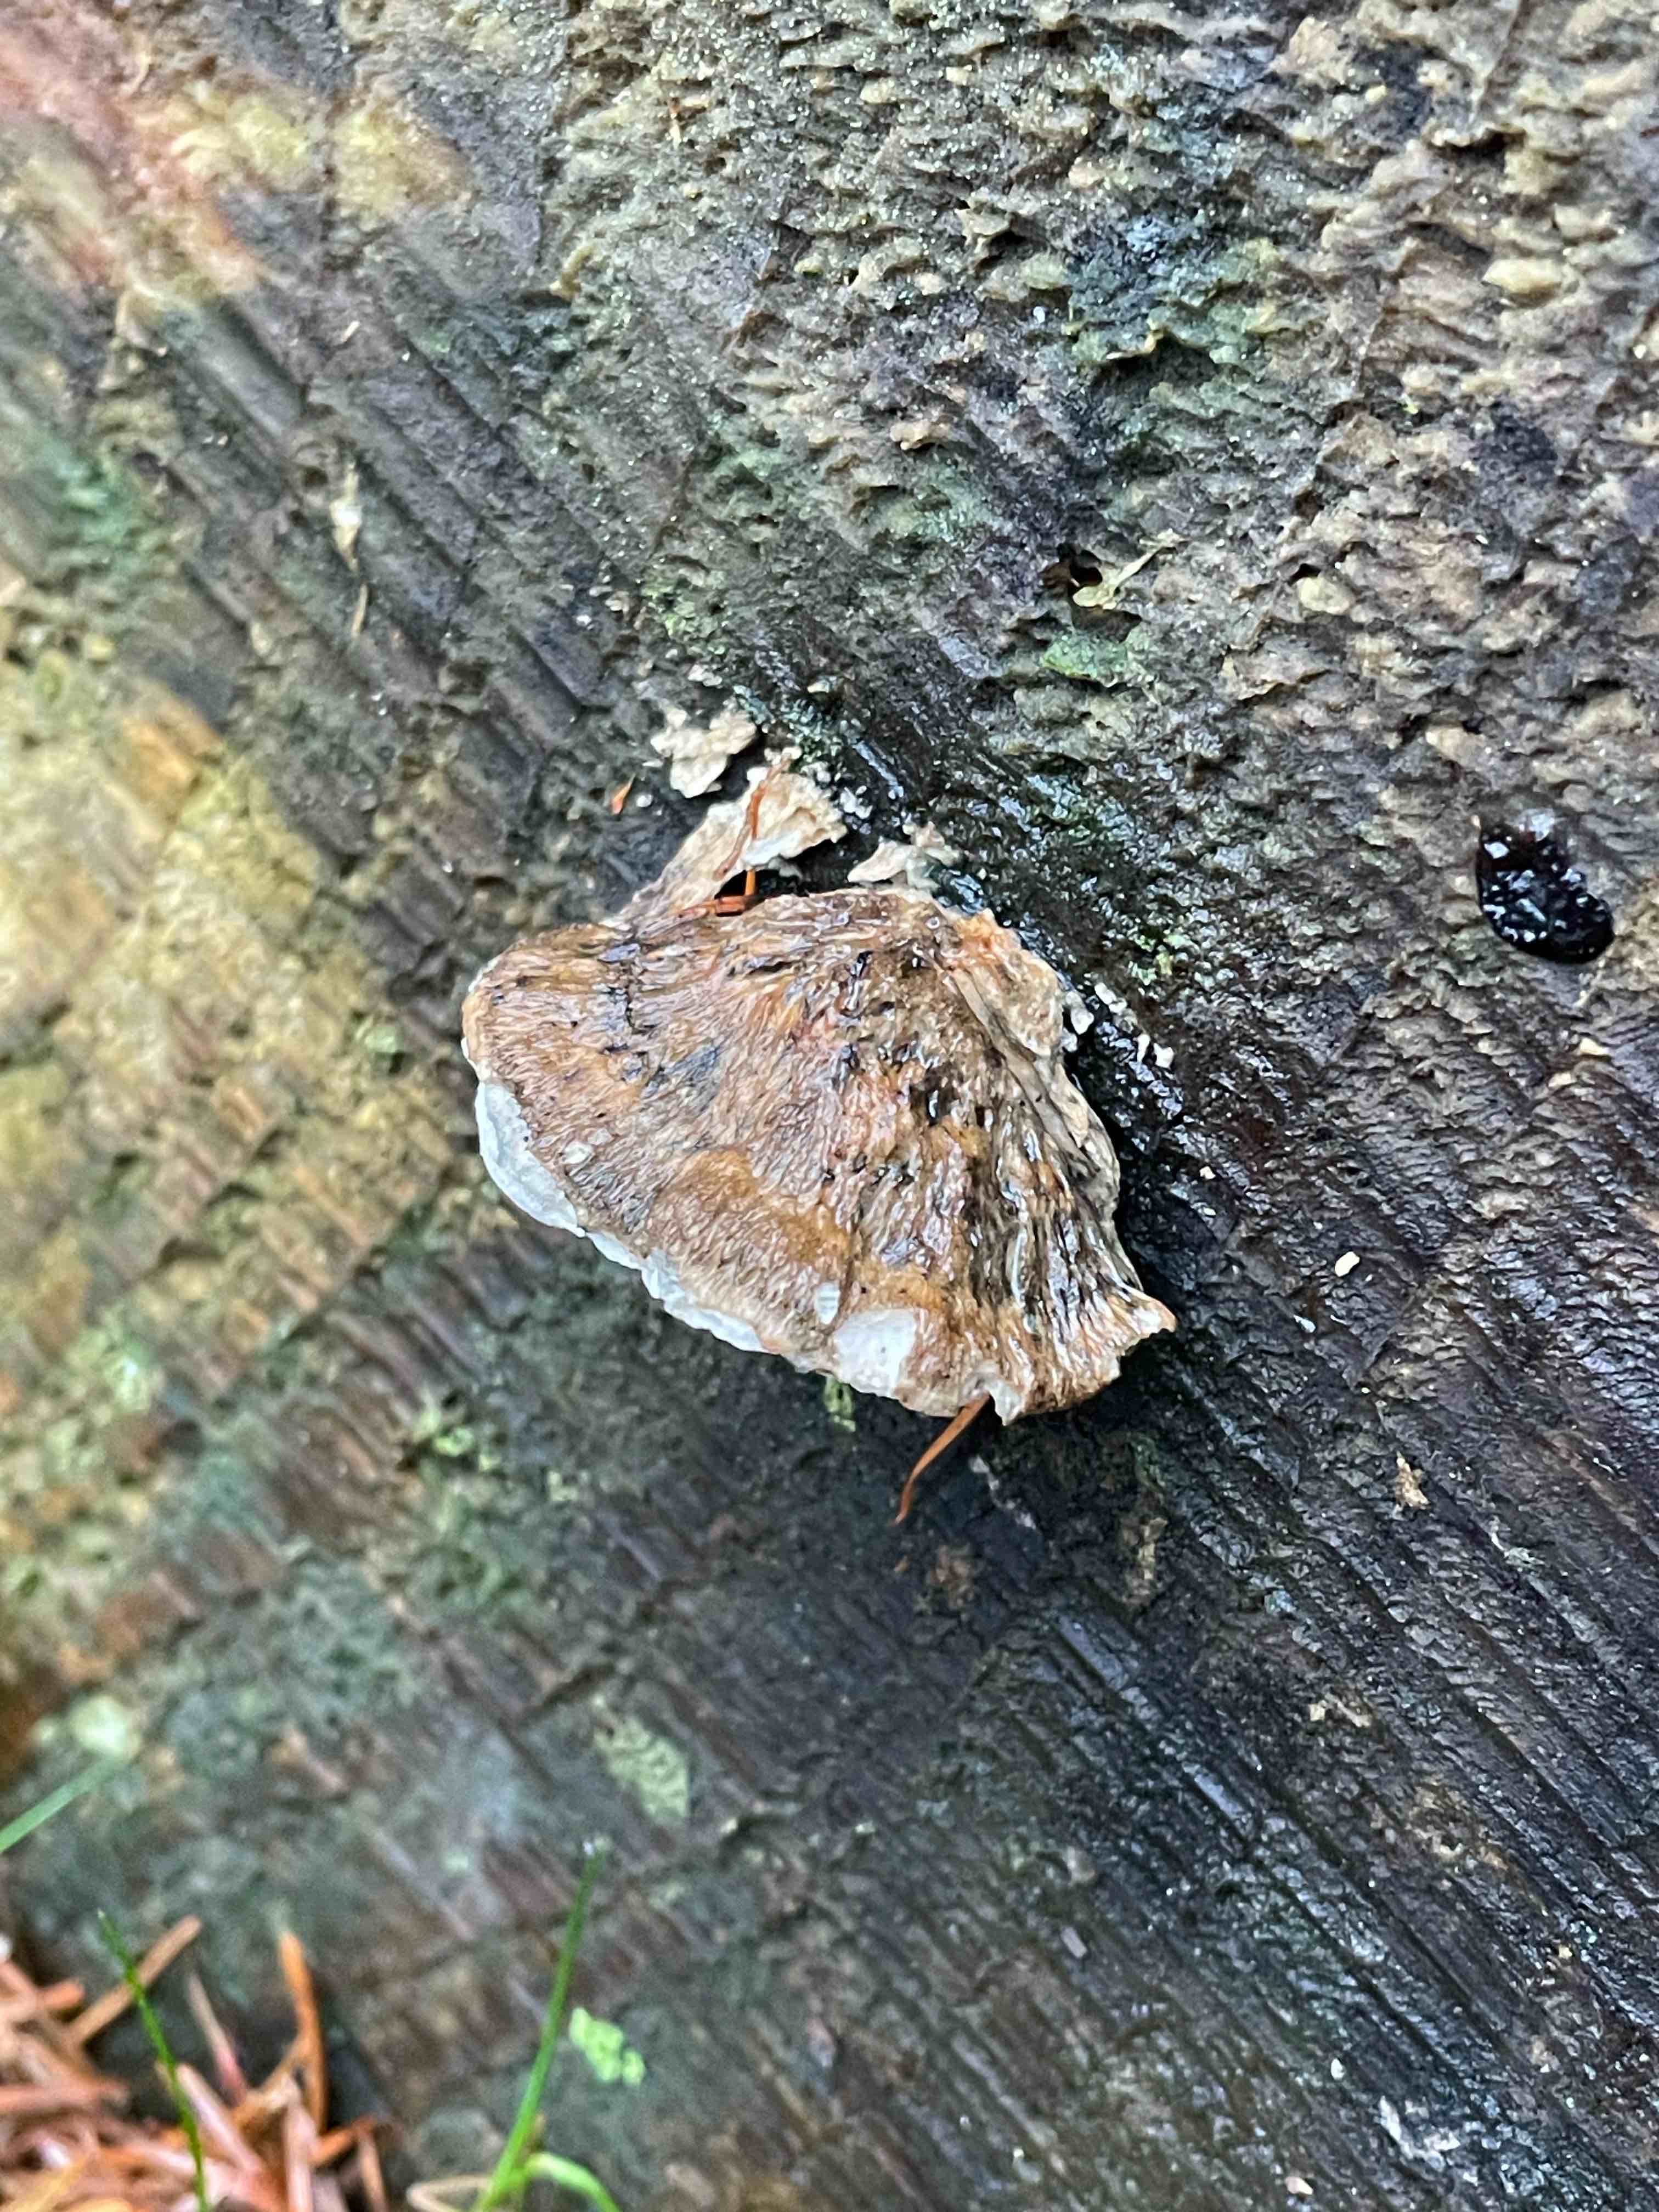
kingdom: Fungi
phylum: Basidiomycota
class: Agaricomycetes
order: Polyporales
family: Polyporaceae
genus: Cyanosporus
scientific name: Cyanosporus caesius
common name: blålig kødporesvamp
